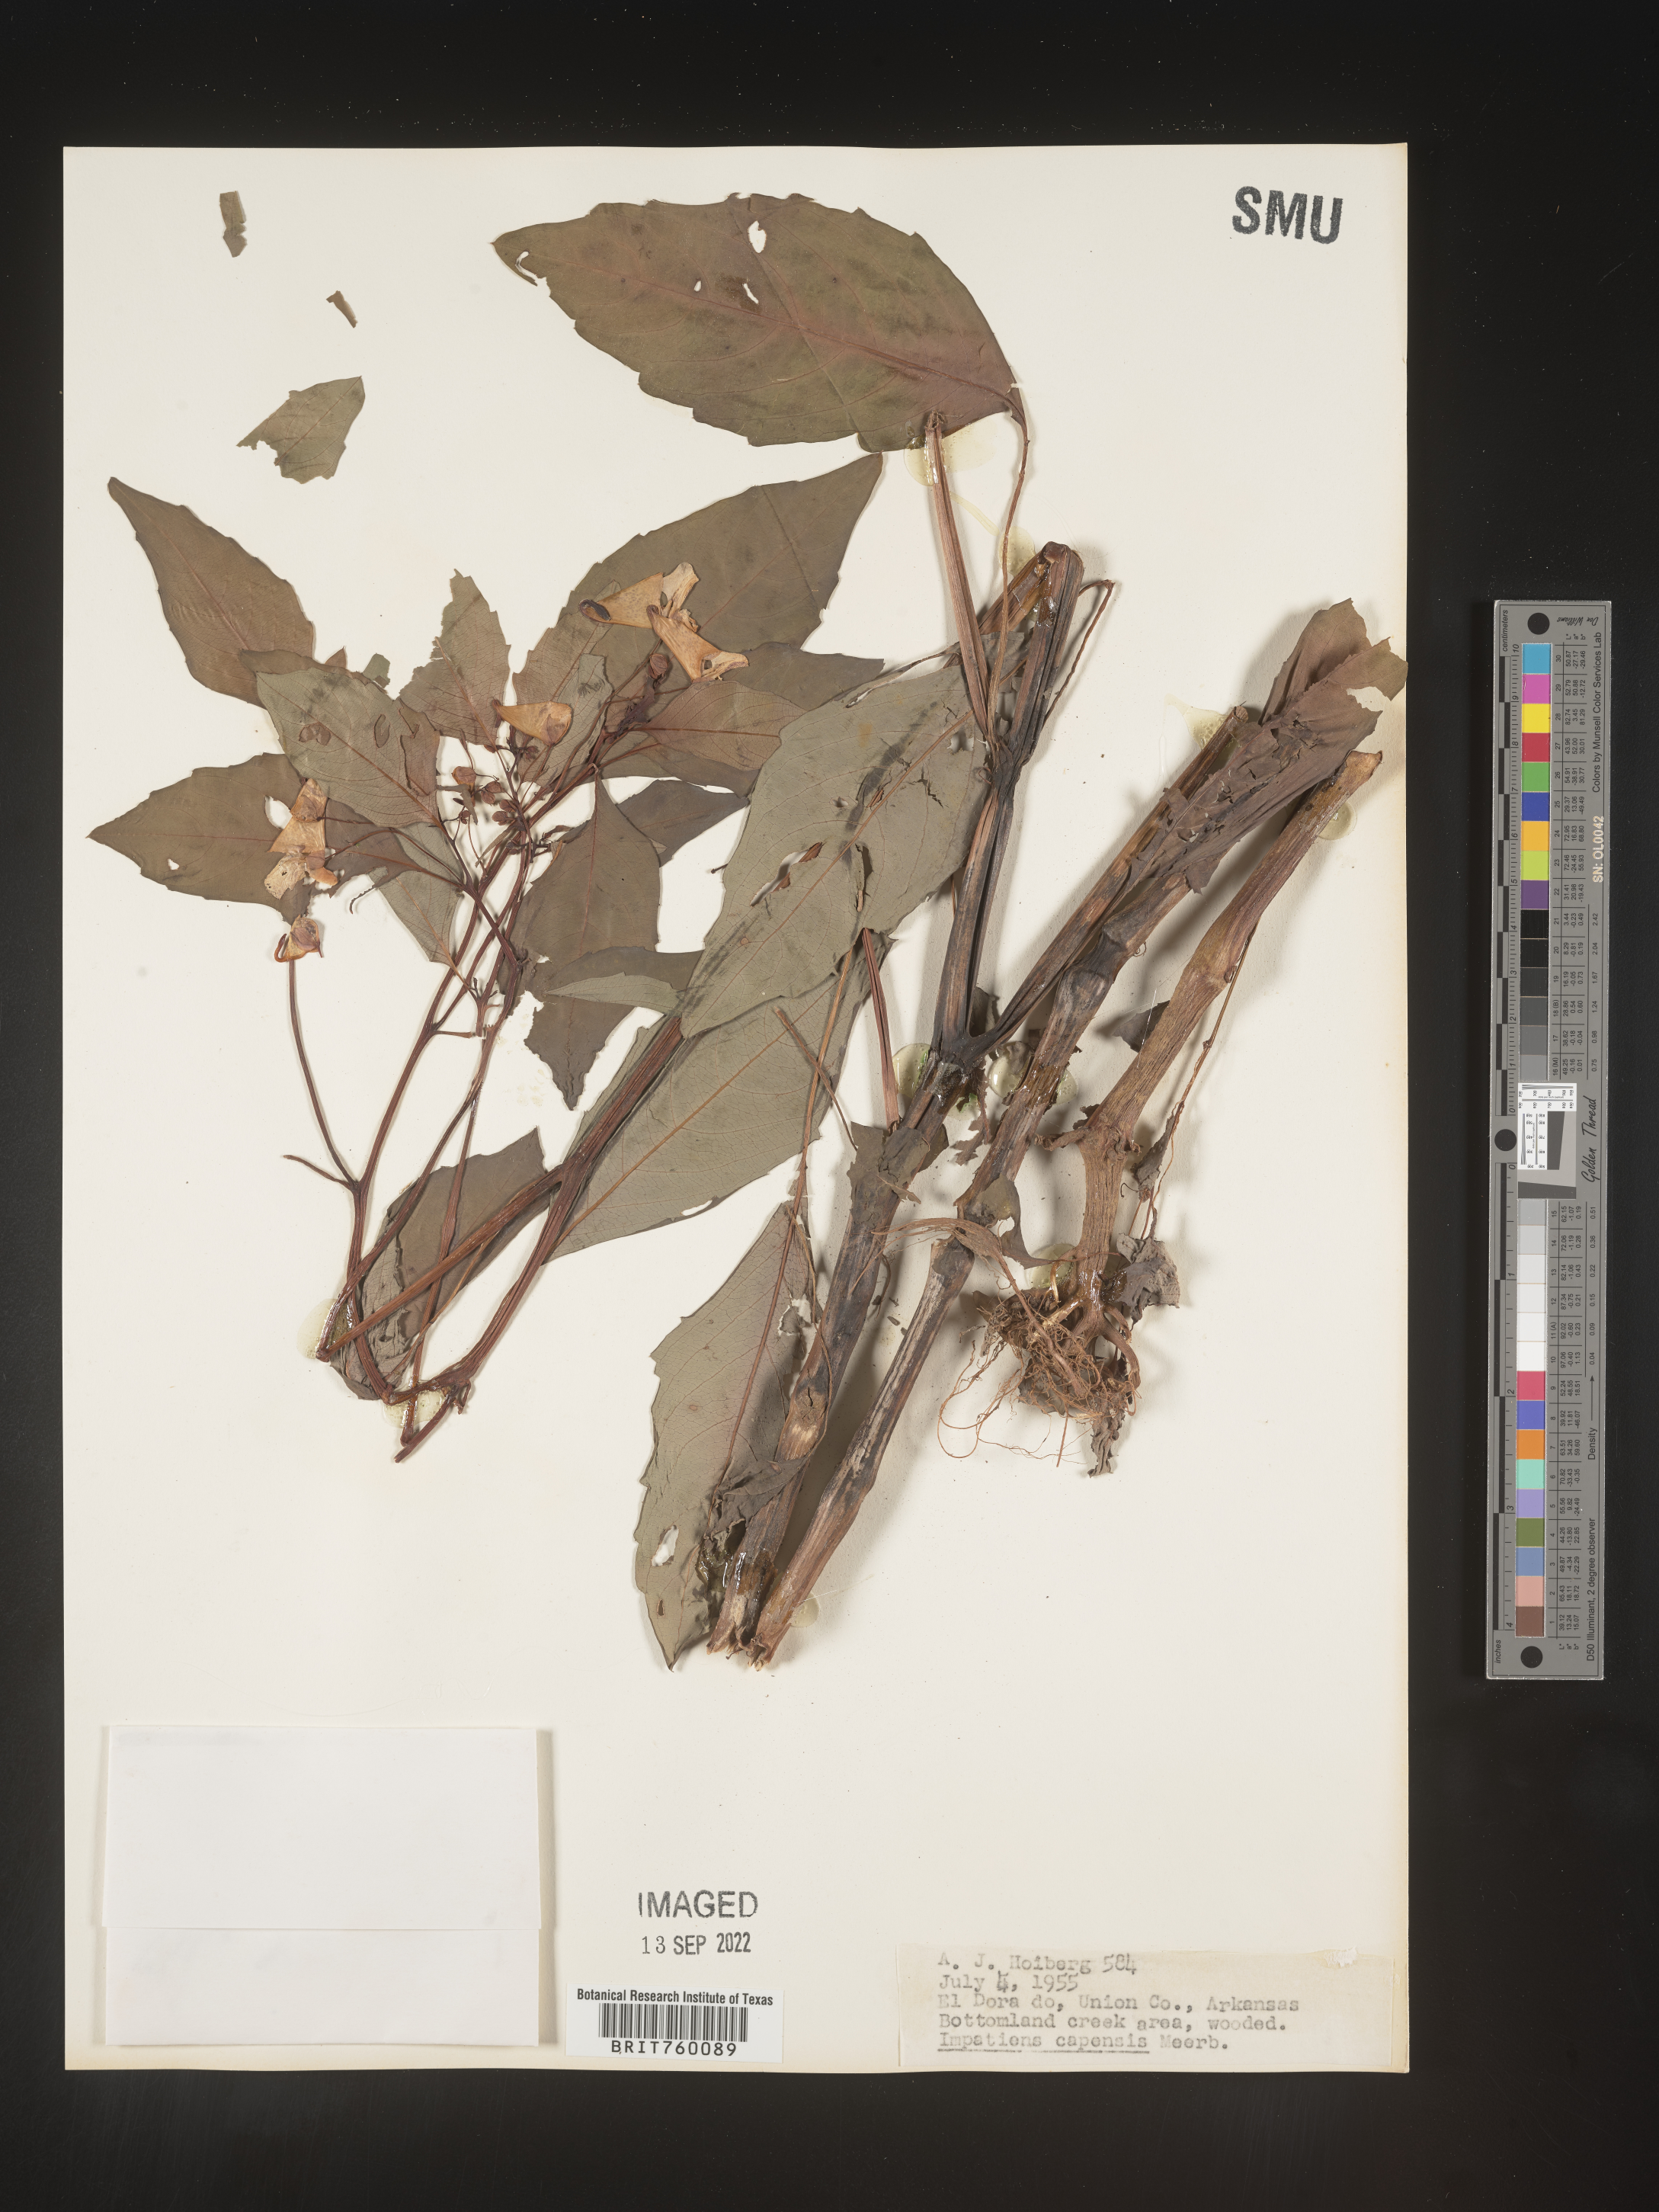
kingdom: Plantae
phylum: Tracheophyta
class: Magnoliopsida
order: Ericales
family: Balsaminaceae
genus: Impatiens
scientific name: Impatiens capensis
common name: Orange balsam
